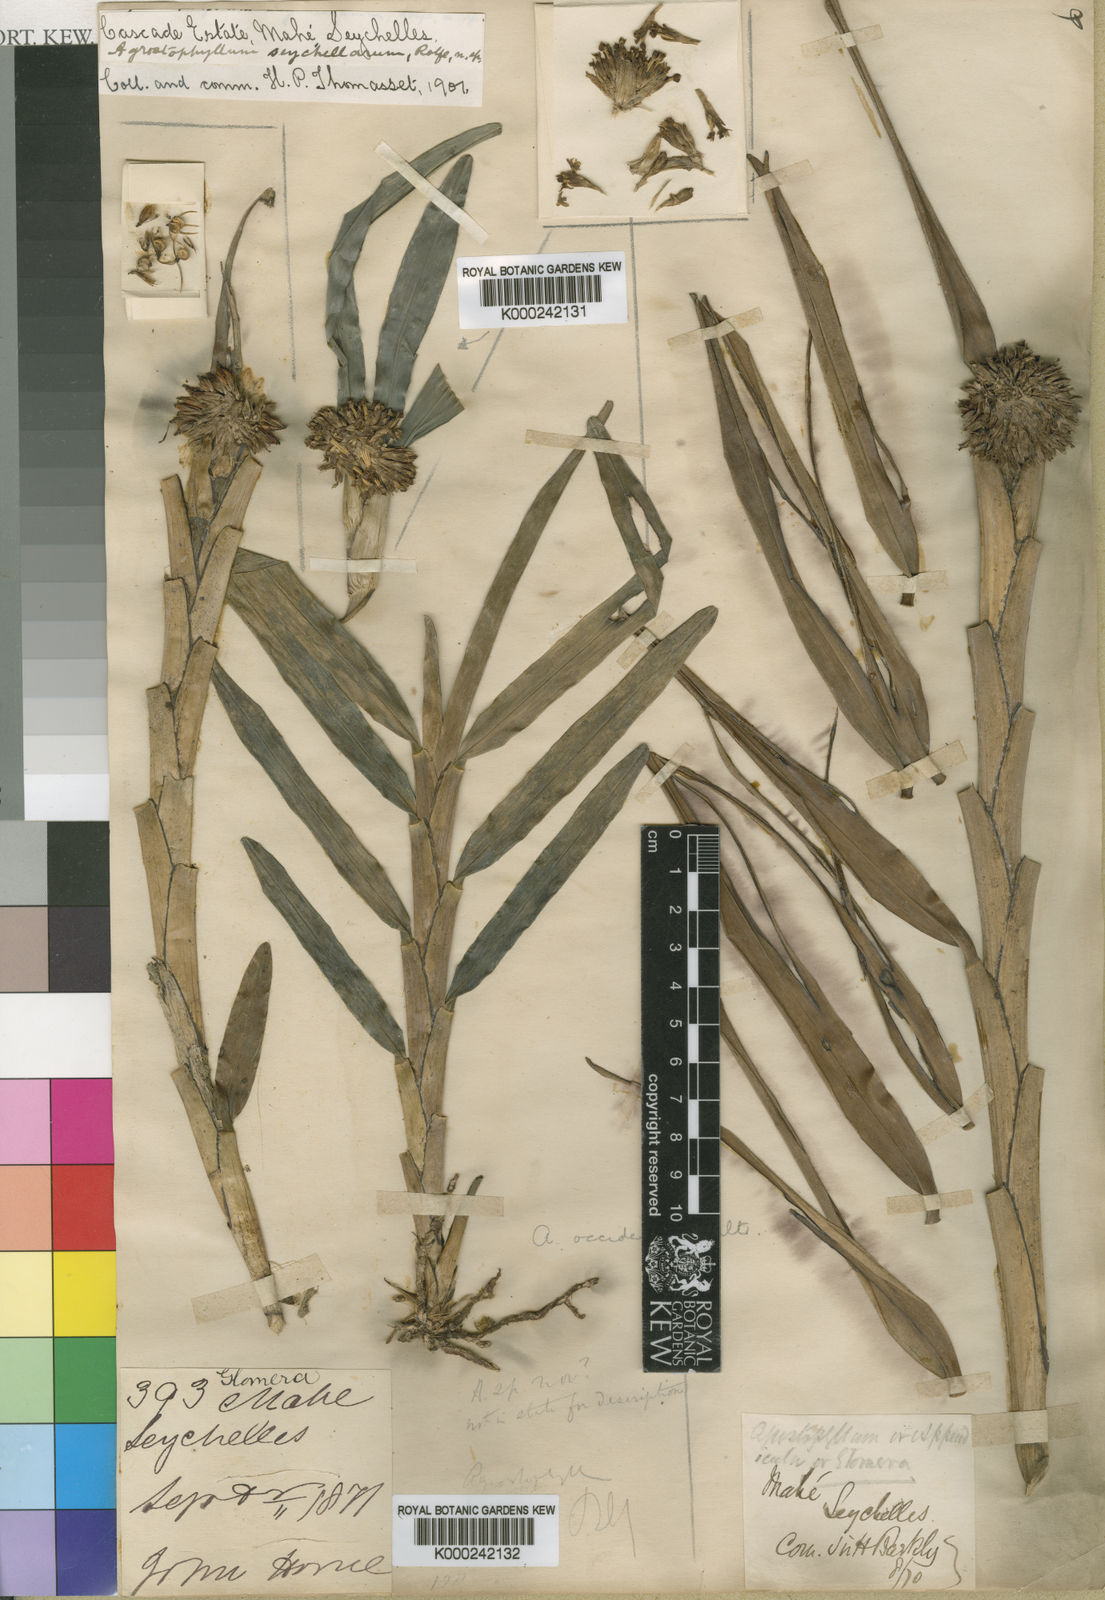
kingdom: Plantae
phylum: Tracheophyta
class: Liliopsida
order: Asparagales
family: Orchidaceae
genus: Agrostophyllum
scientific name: Agrostophyllum occidentale
